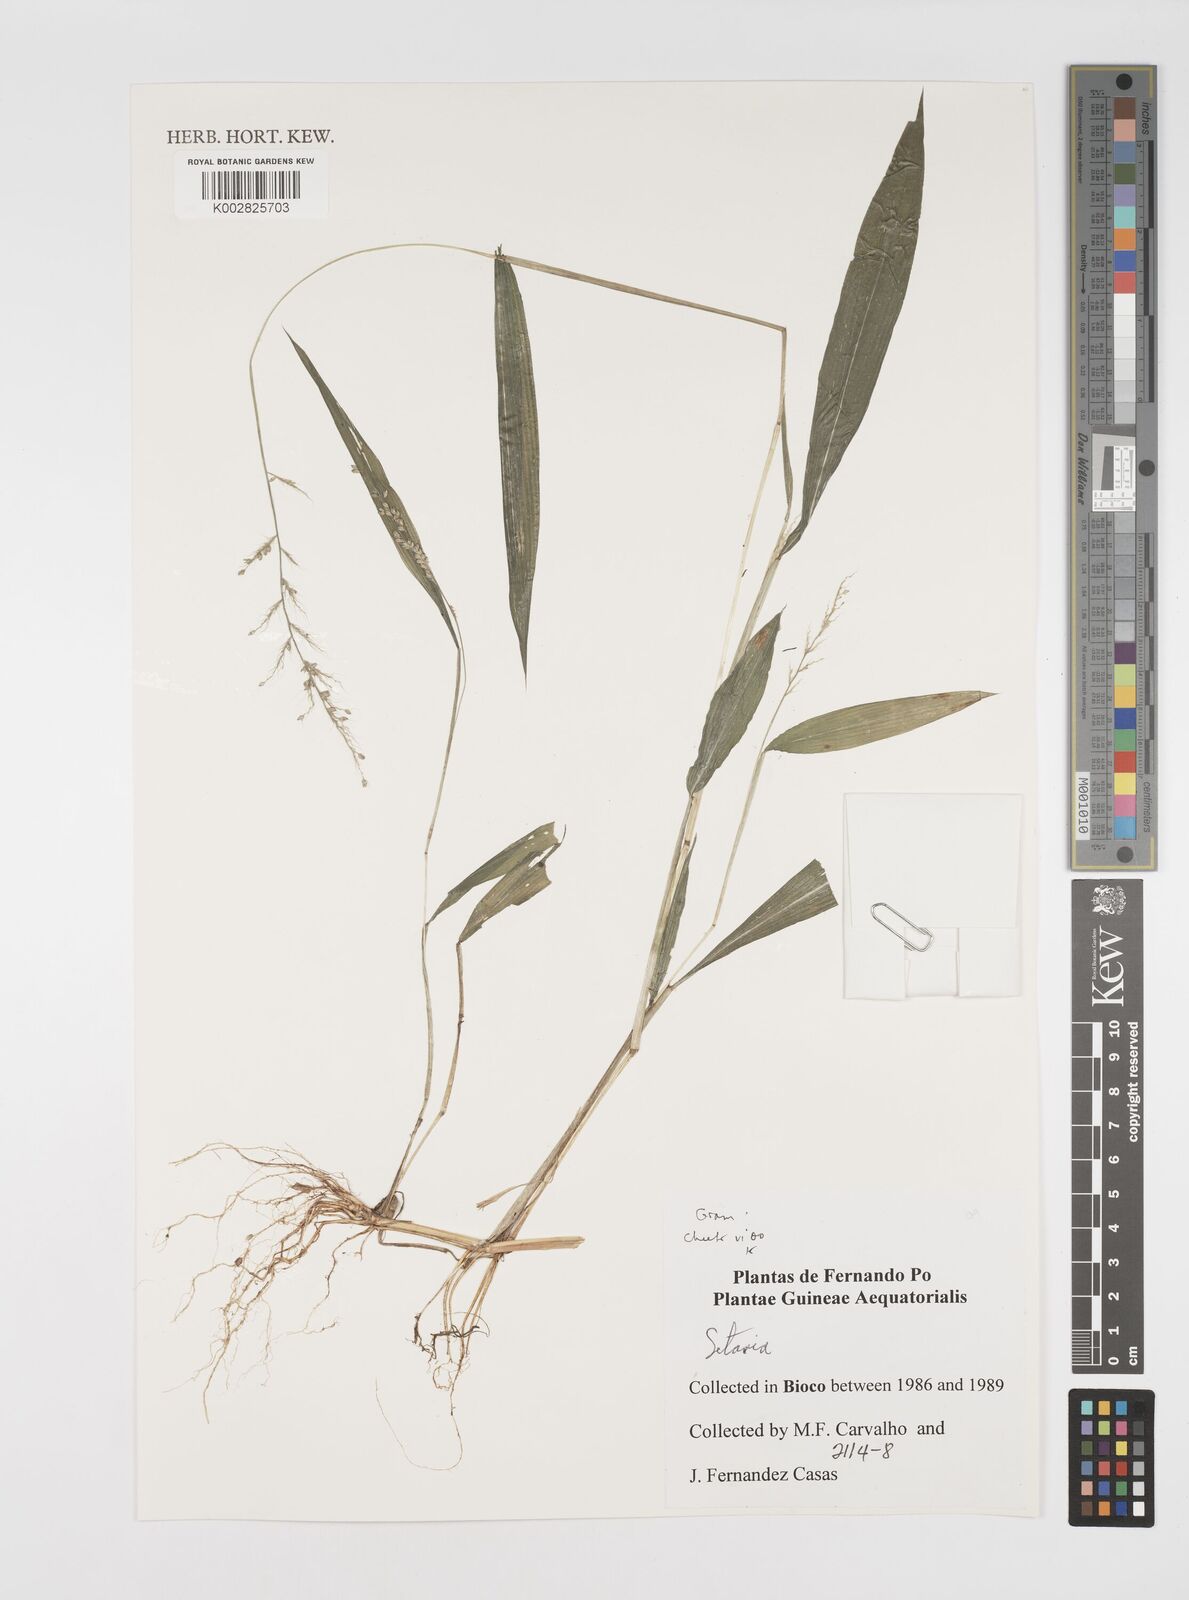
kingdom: Plantae
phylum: Tracheophyta
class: Liliopsida
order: Poales
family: Poaceae
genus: Setaria
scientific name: Setaria barbata
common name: East indian bristlegrass
